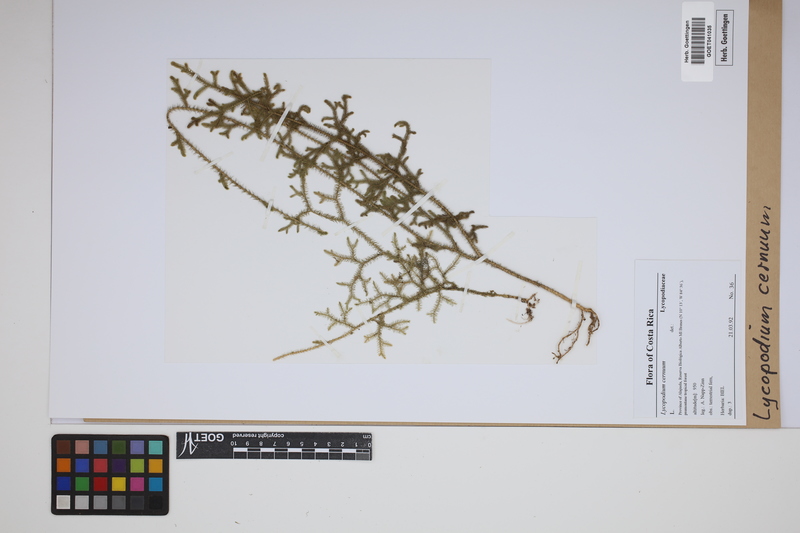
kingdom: Plantae
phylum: Tracheophyta
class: Lycopodiopsida
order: Lycopodiales
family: Lycopodiaceae
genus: Palhinhaea
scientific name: Palhinhaea cernua
